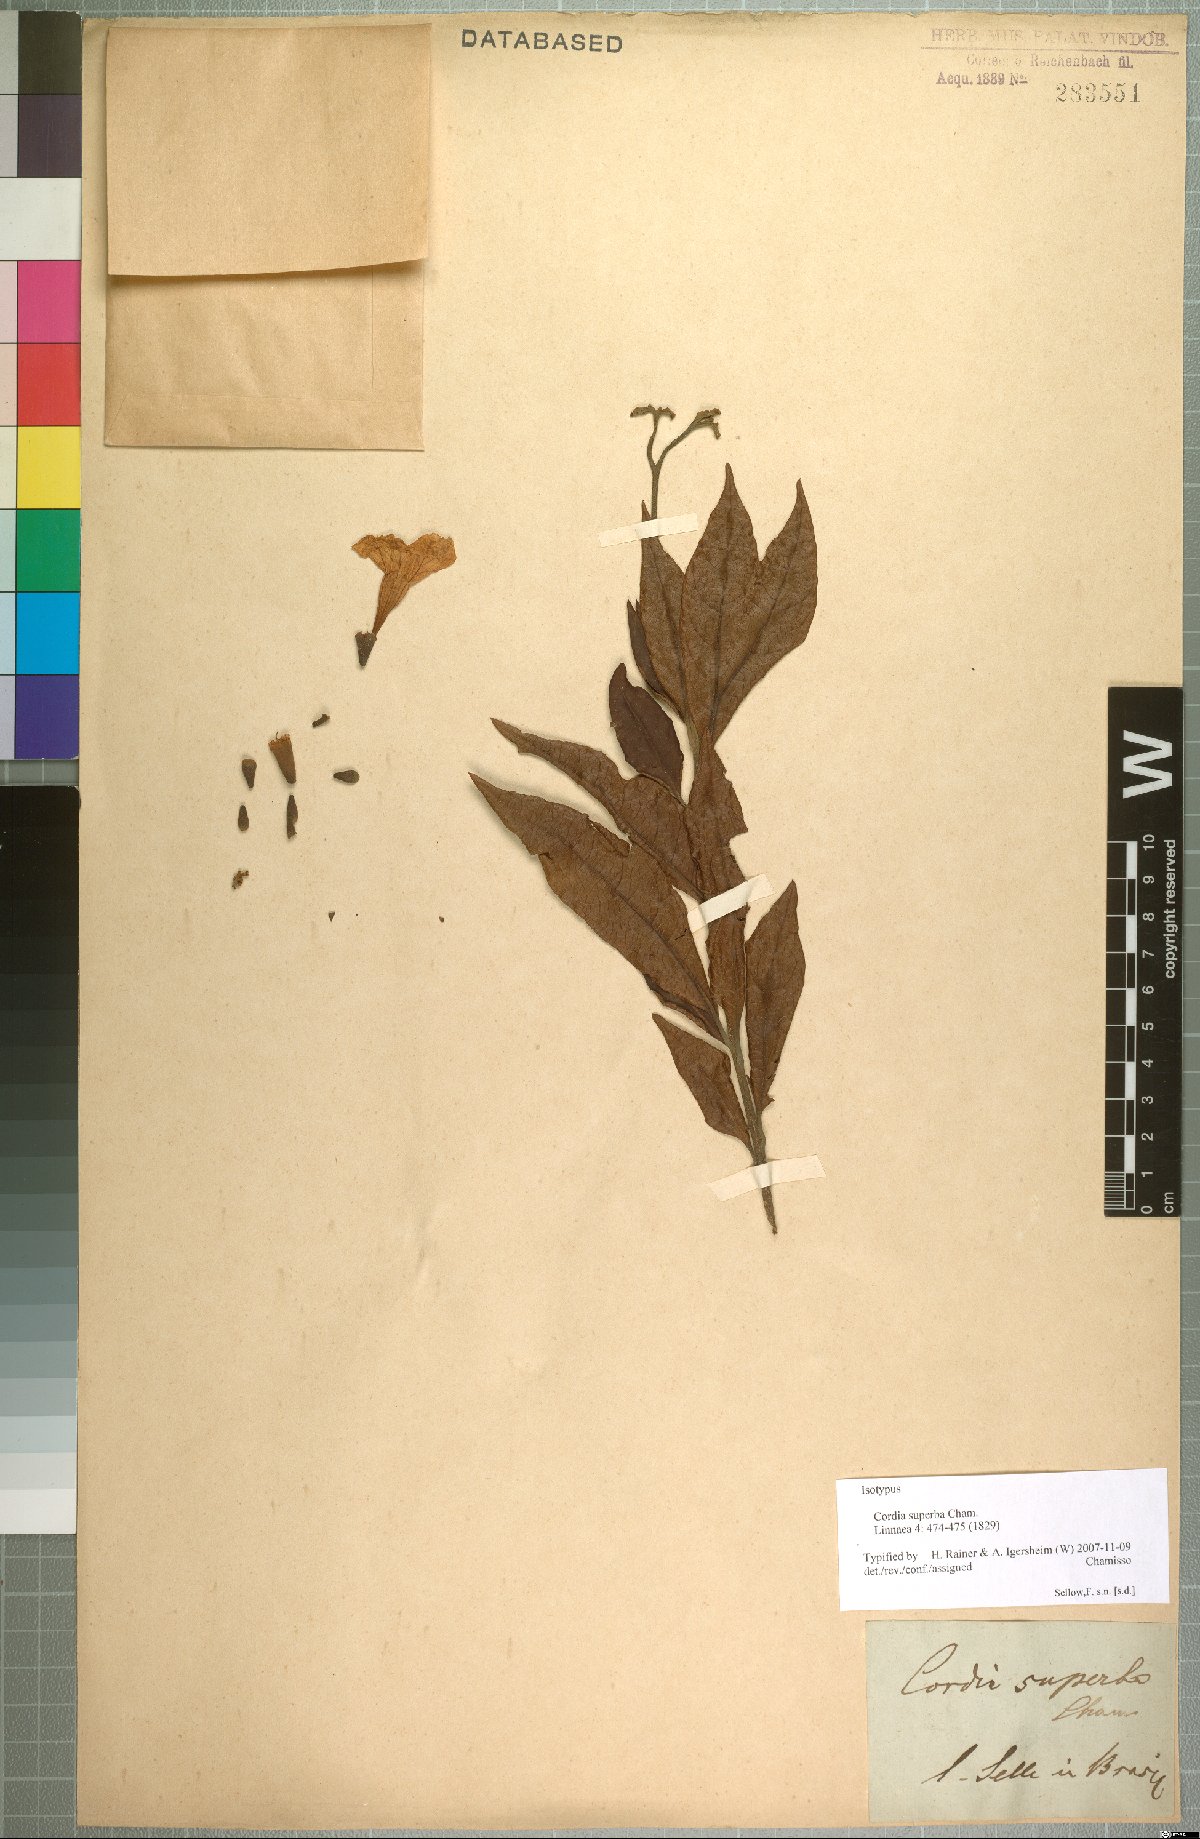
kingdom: Plantae
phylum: Tracheophyta
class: Magnoliopsida
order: Boraginales
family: Cordiaceae
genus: Cordia
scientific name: Cordia superba
